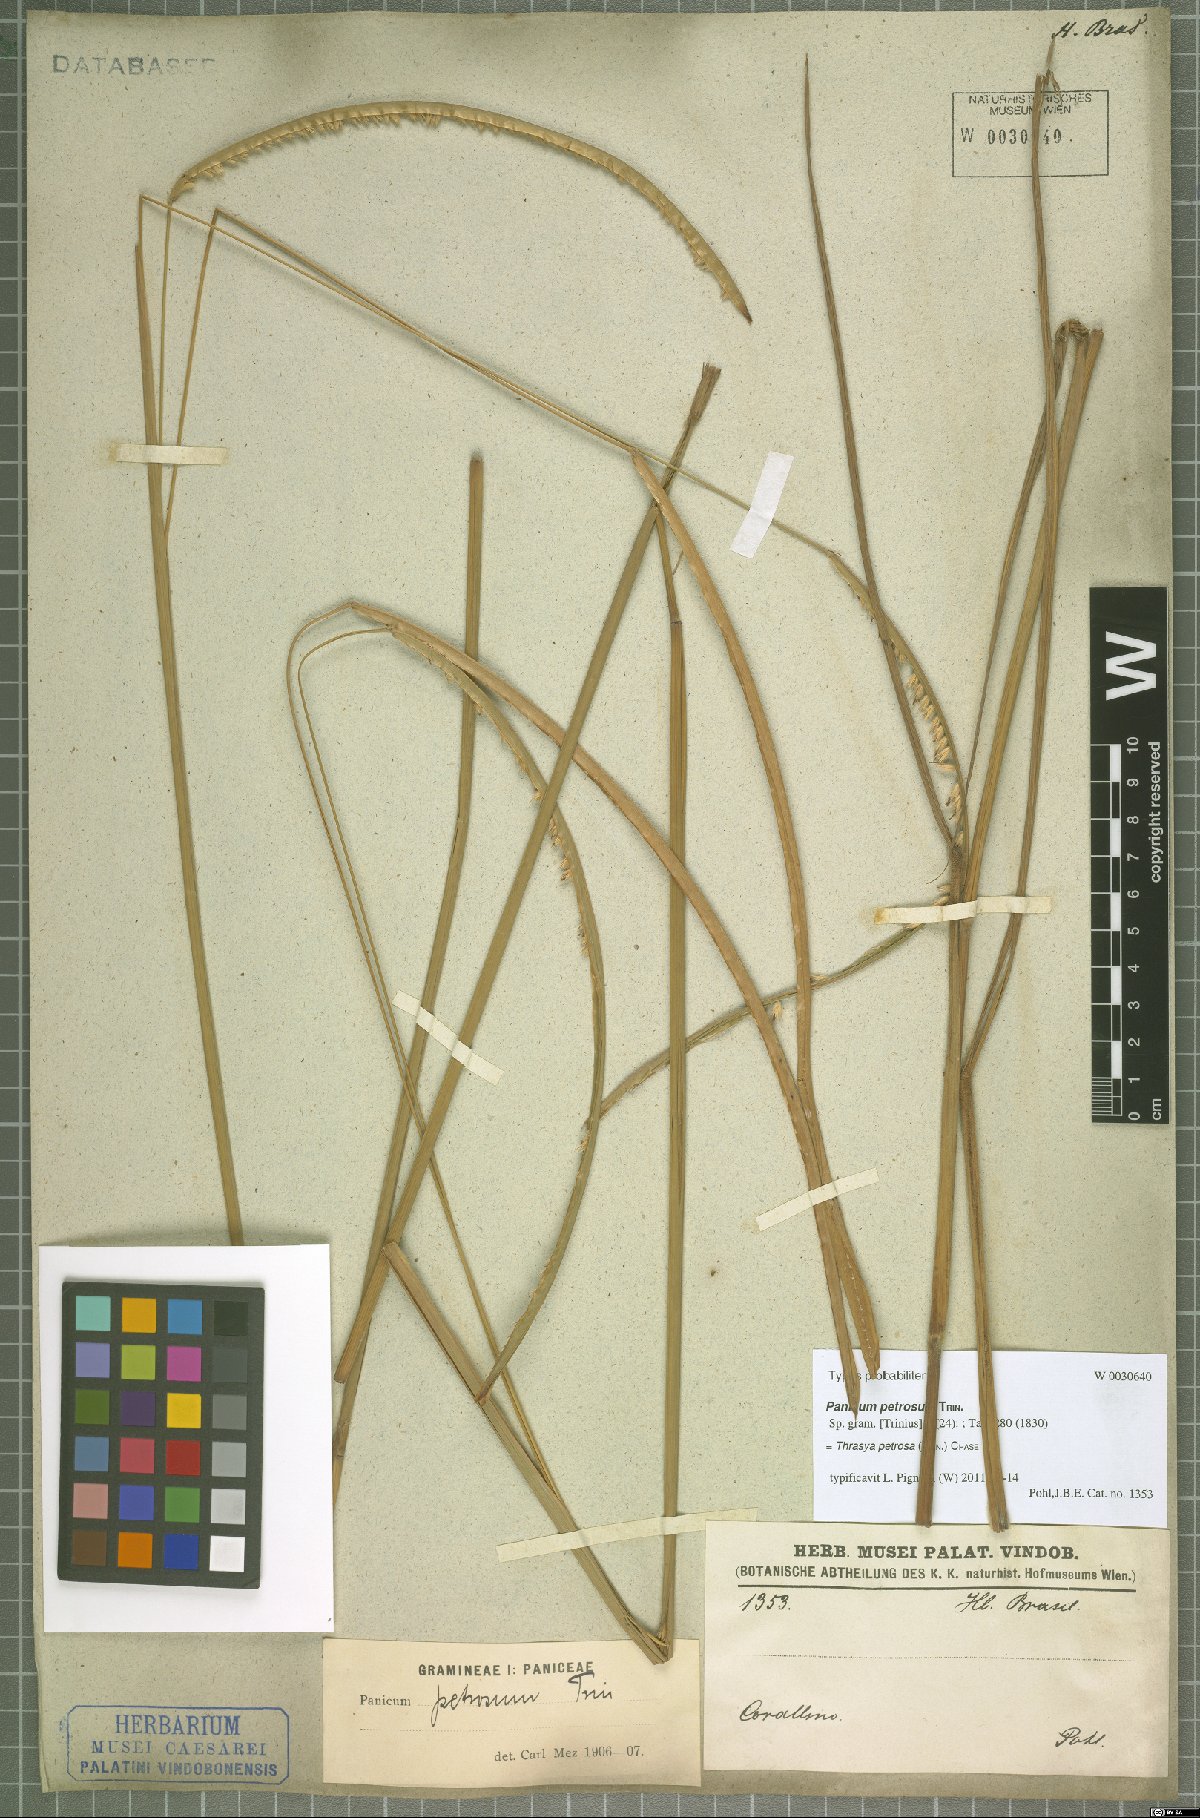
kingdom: Plantae
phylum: Tracheophyta
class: Liliopsida
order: Poales
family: Poaceae
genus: Paspalum
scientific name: Paspalum foliiforme
